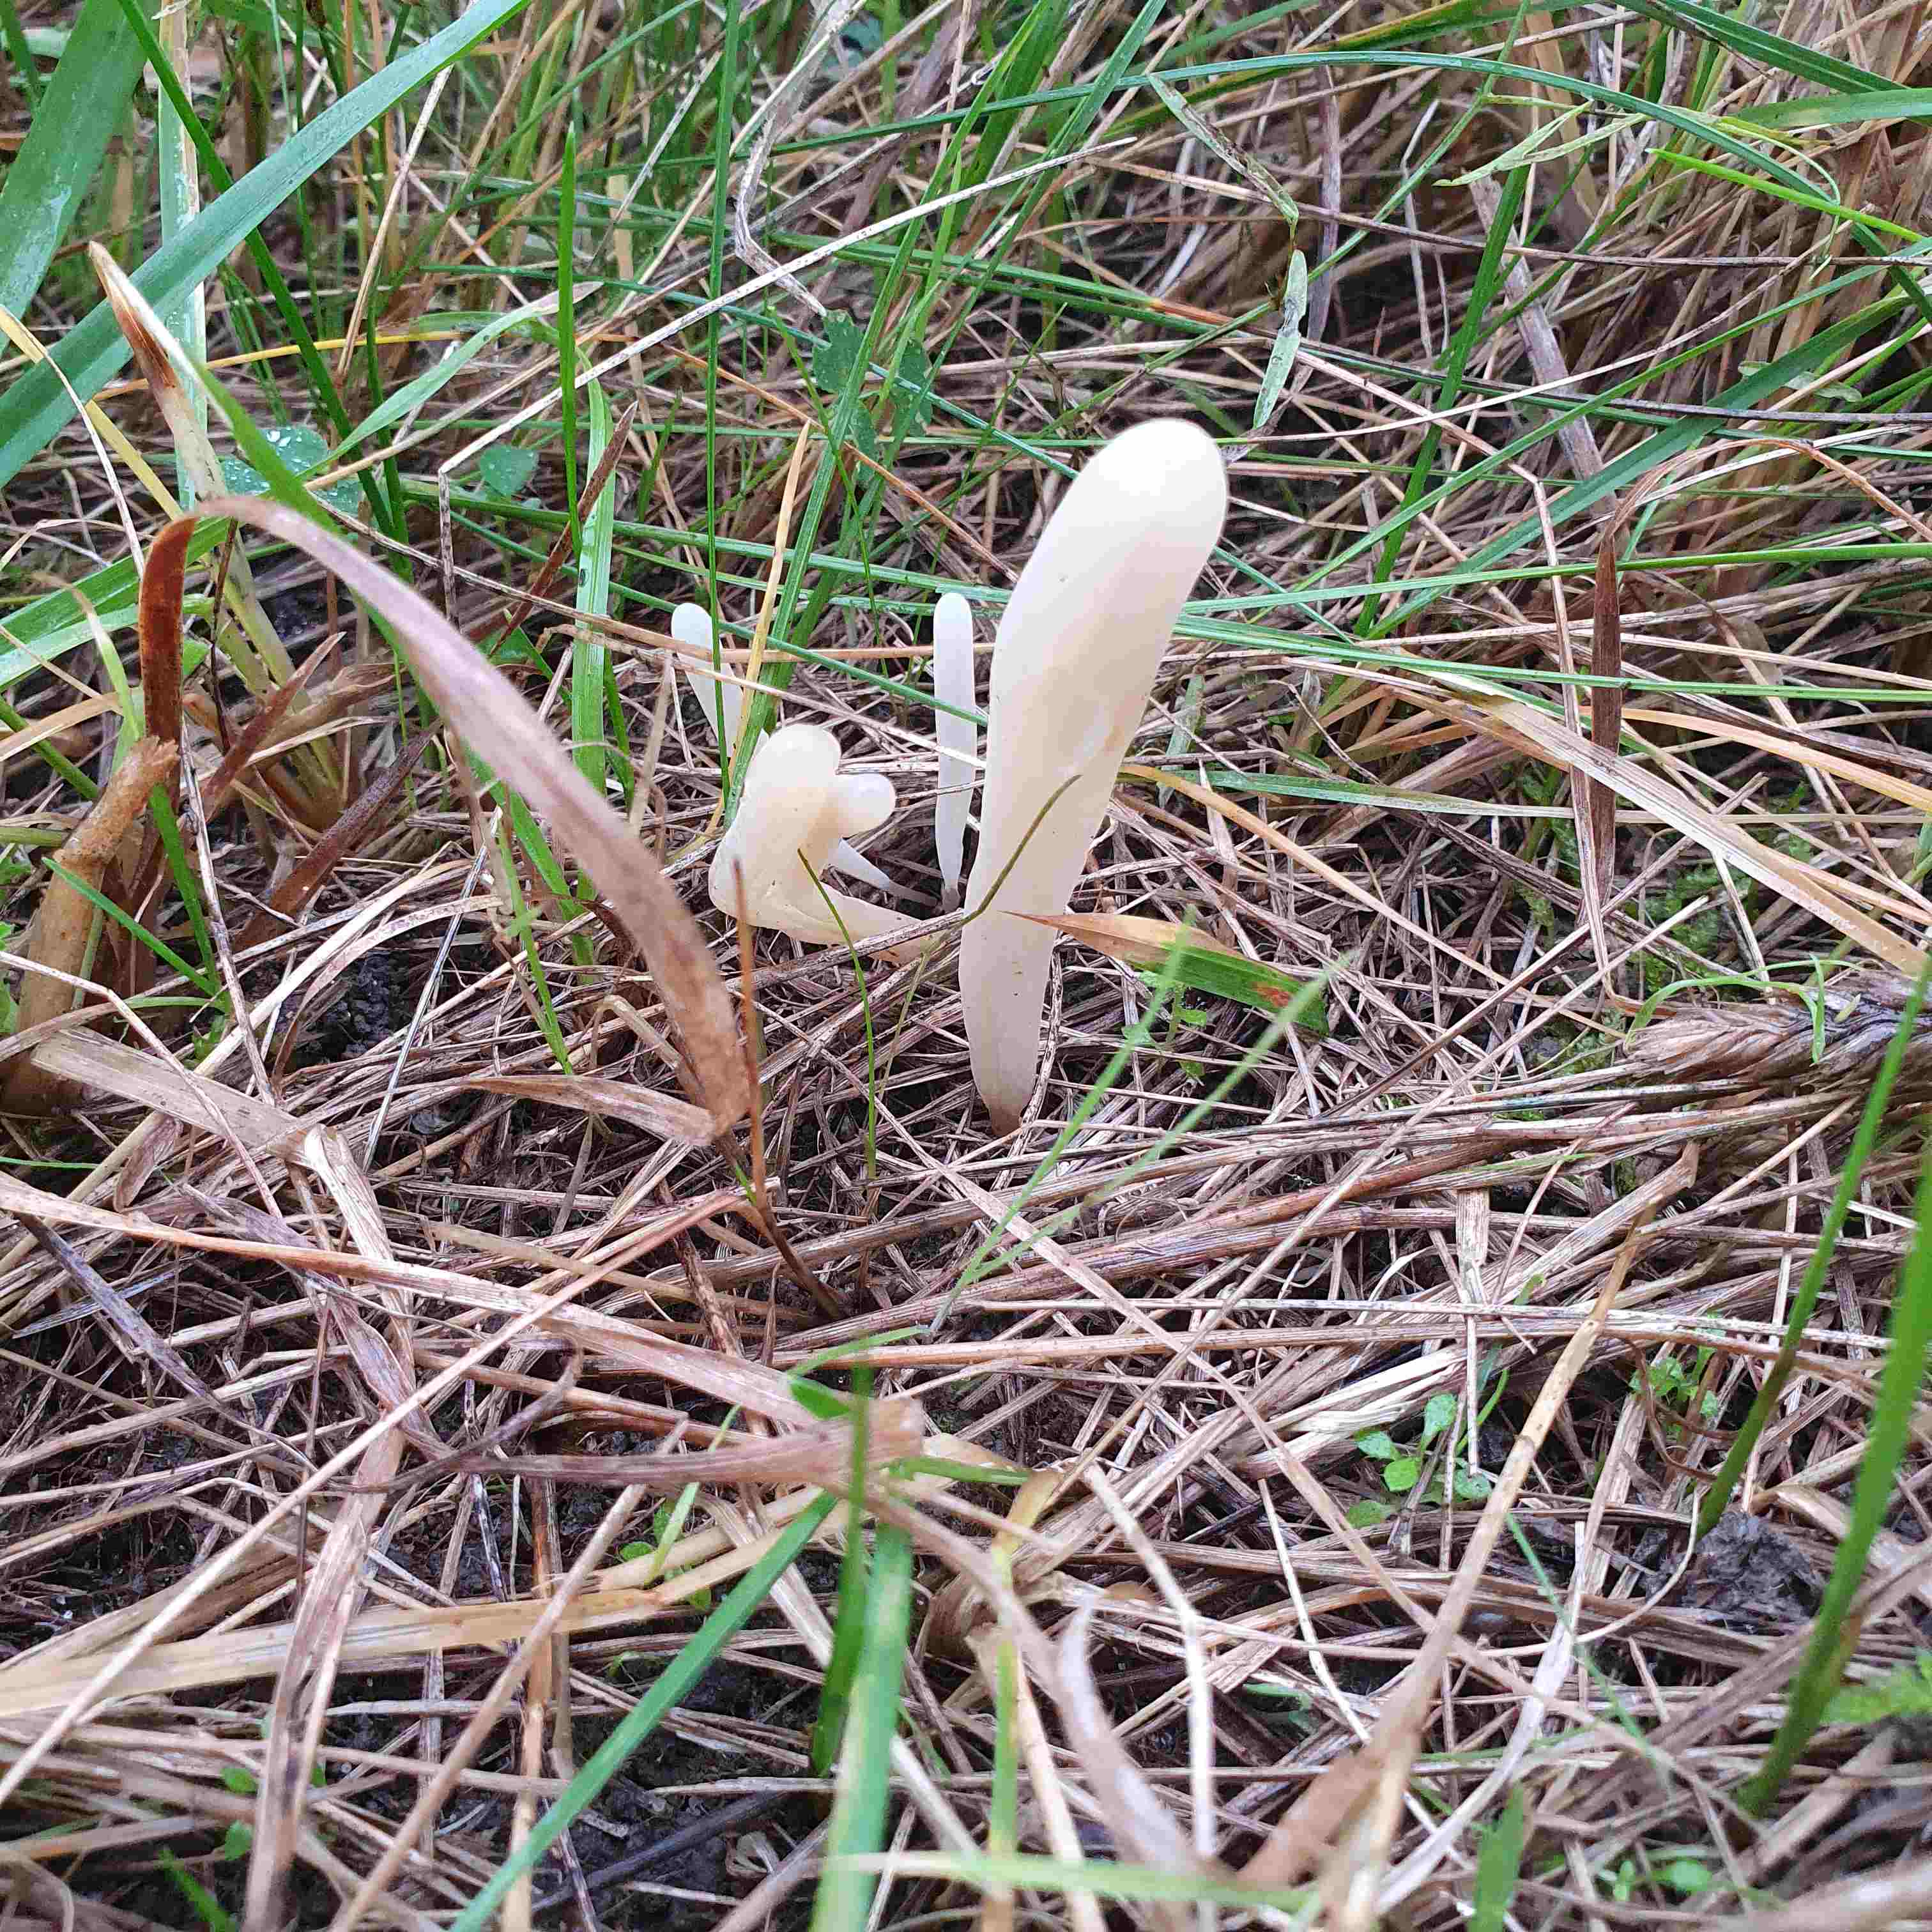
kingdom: Fungi
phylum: Basidiomycota
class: Agaricomycetes
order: Agaricales
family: Clavariaceae
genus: Clavaria
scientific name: Clavaria tenuipes
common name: isabellafarvet køllesvamp
